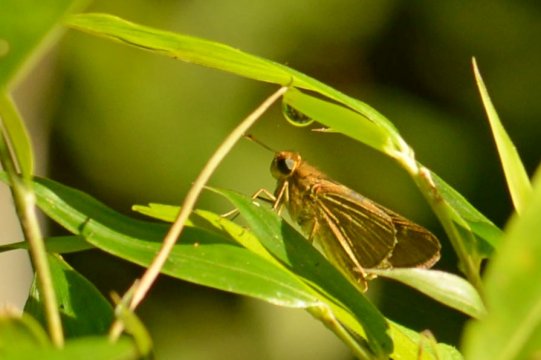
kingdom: Animalia
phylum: Arthropoda
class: Insecta
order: Lepidoptera
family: Hesperiidae
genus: Nastra
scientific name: Nastra lherminier
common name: Swarthy Skipper
